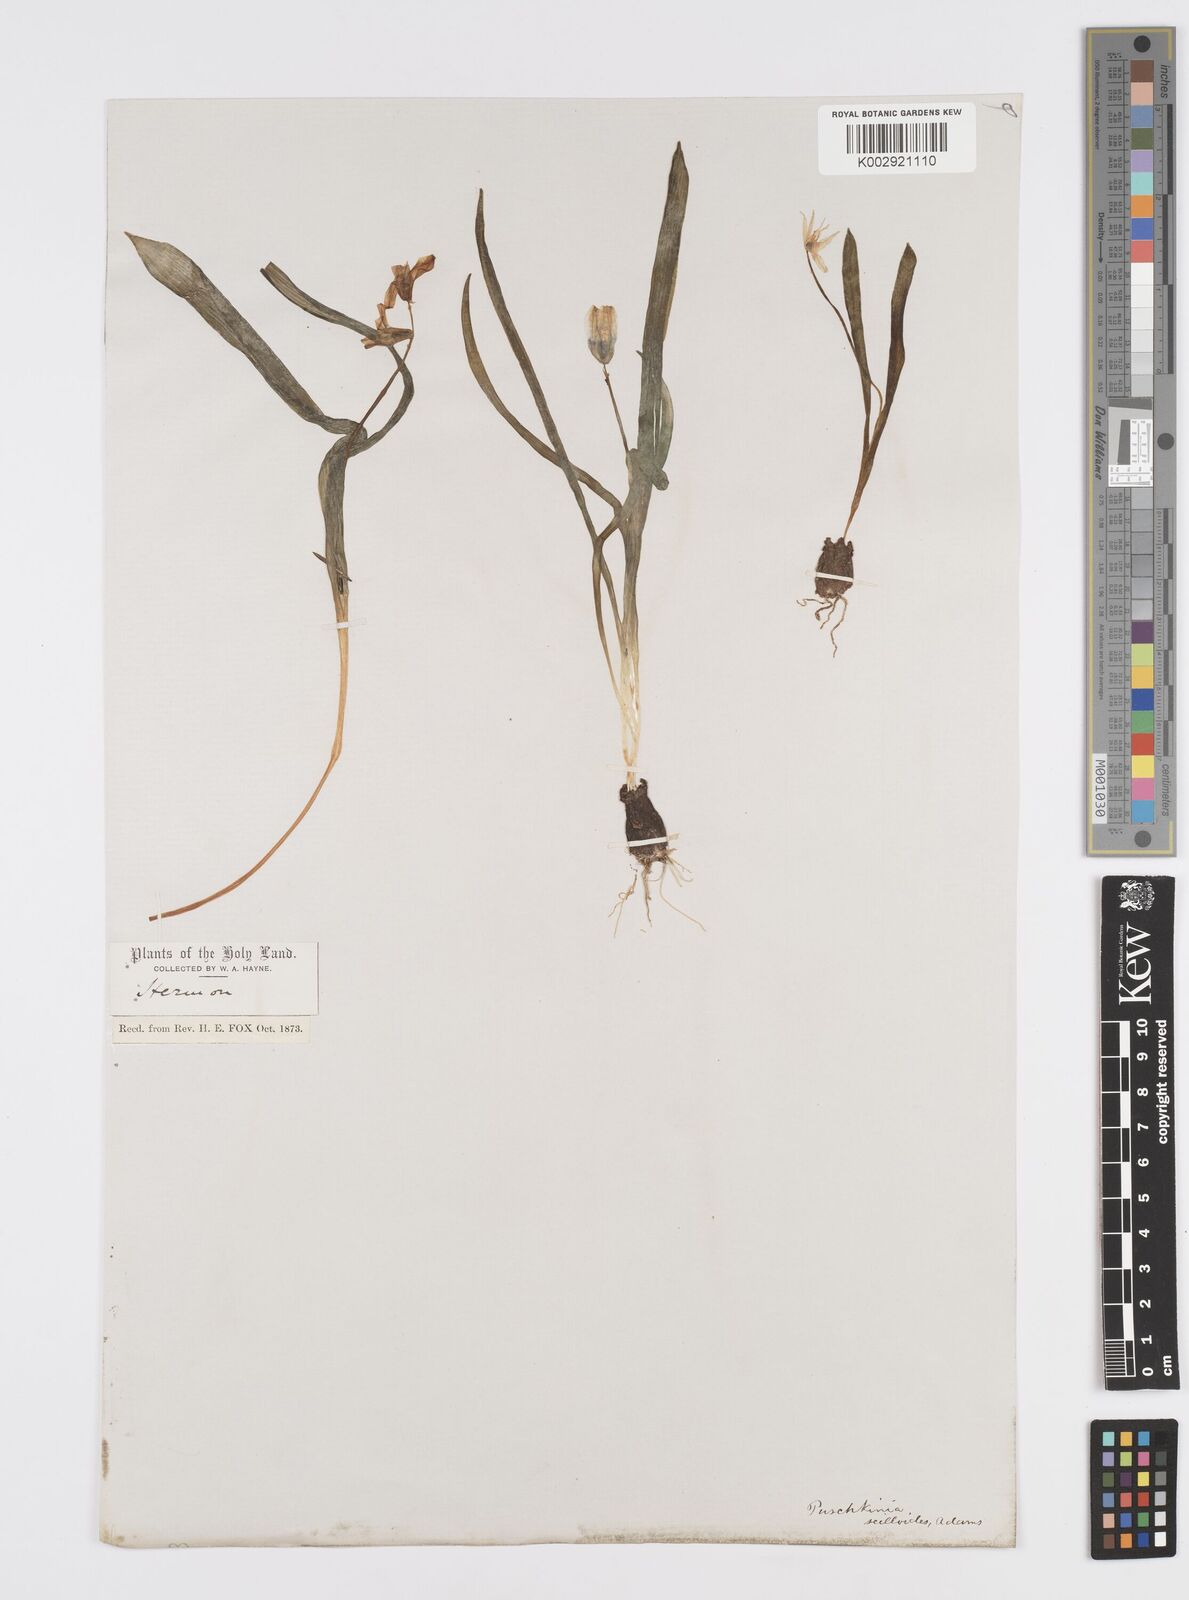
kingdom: Plantae
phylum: Tracheophyta
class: Liliopsida
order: Asparagales
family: Asparagaceae
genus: Puschkinia
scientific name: Puschkinia scilloides
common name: Striped squill
